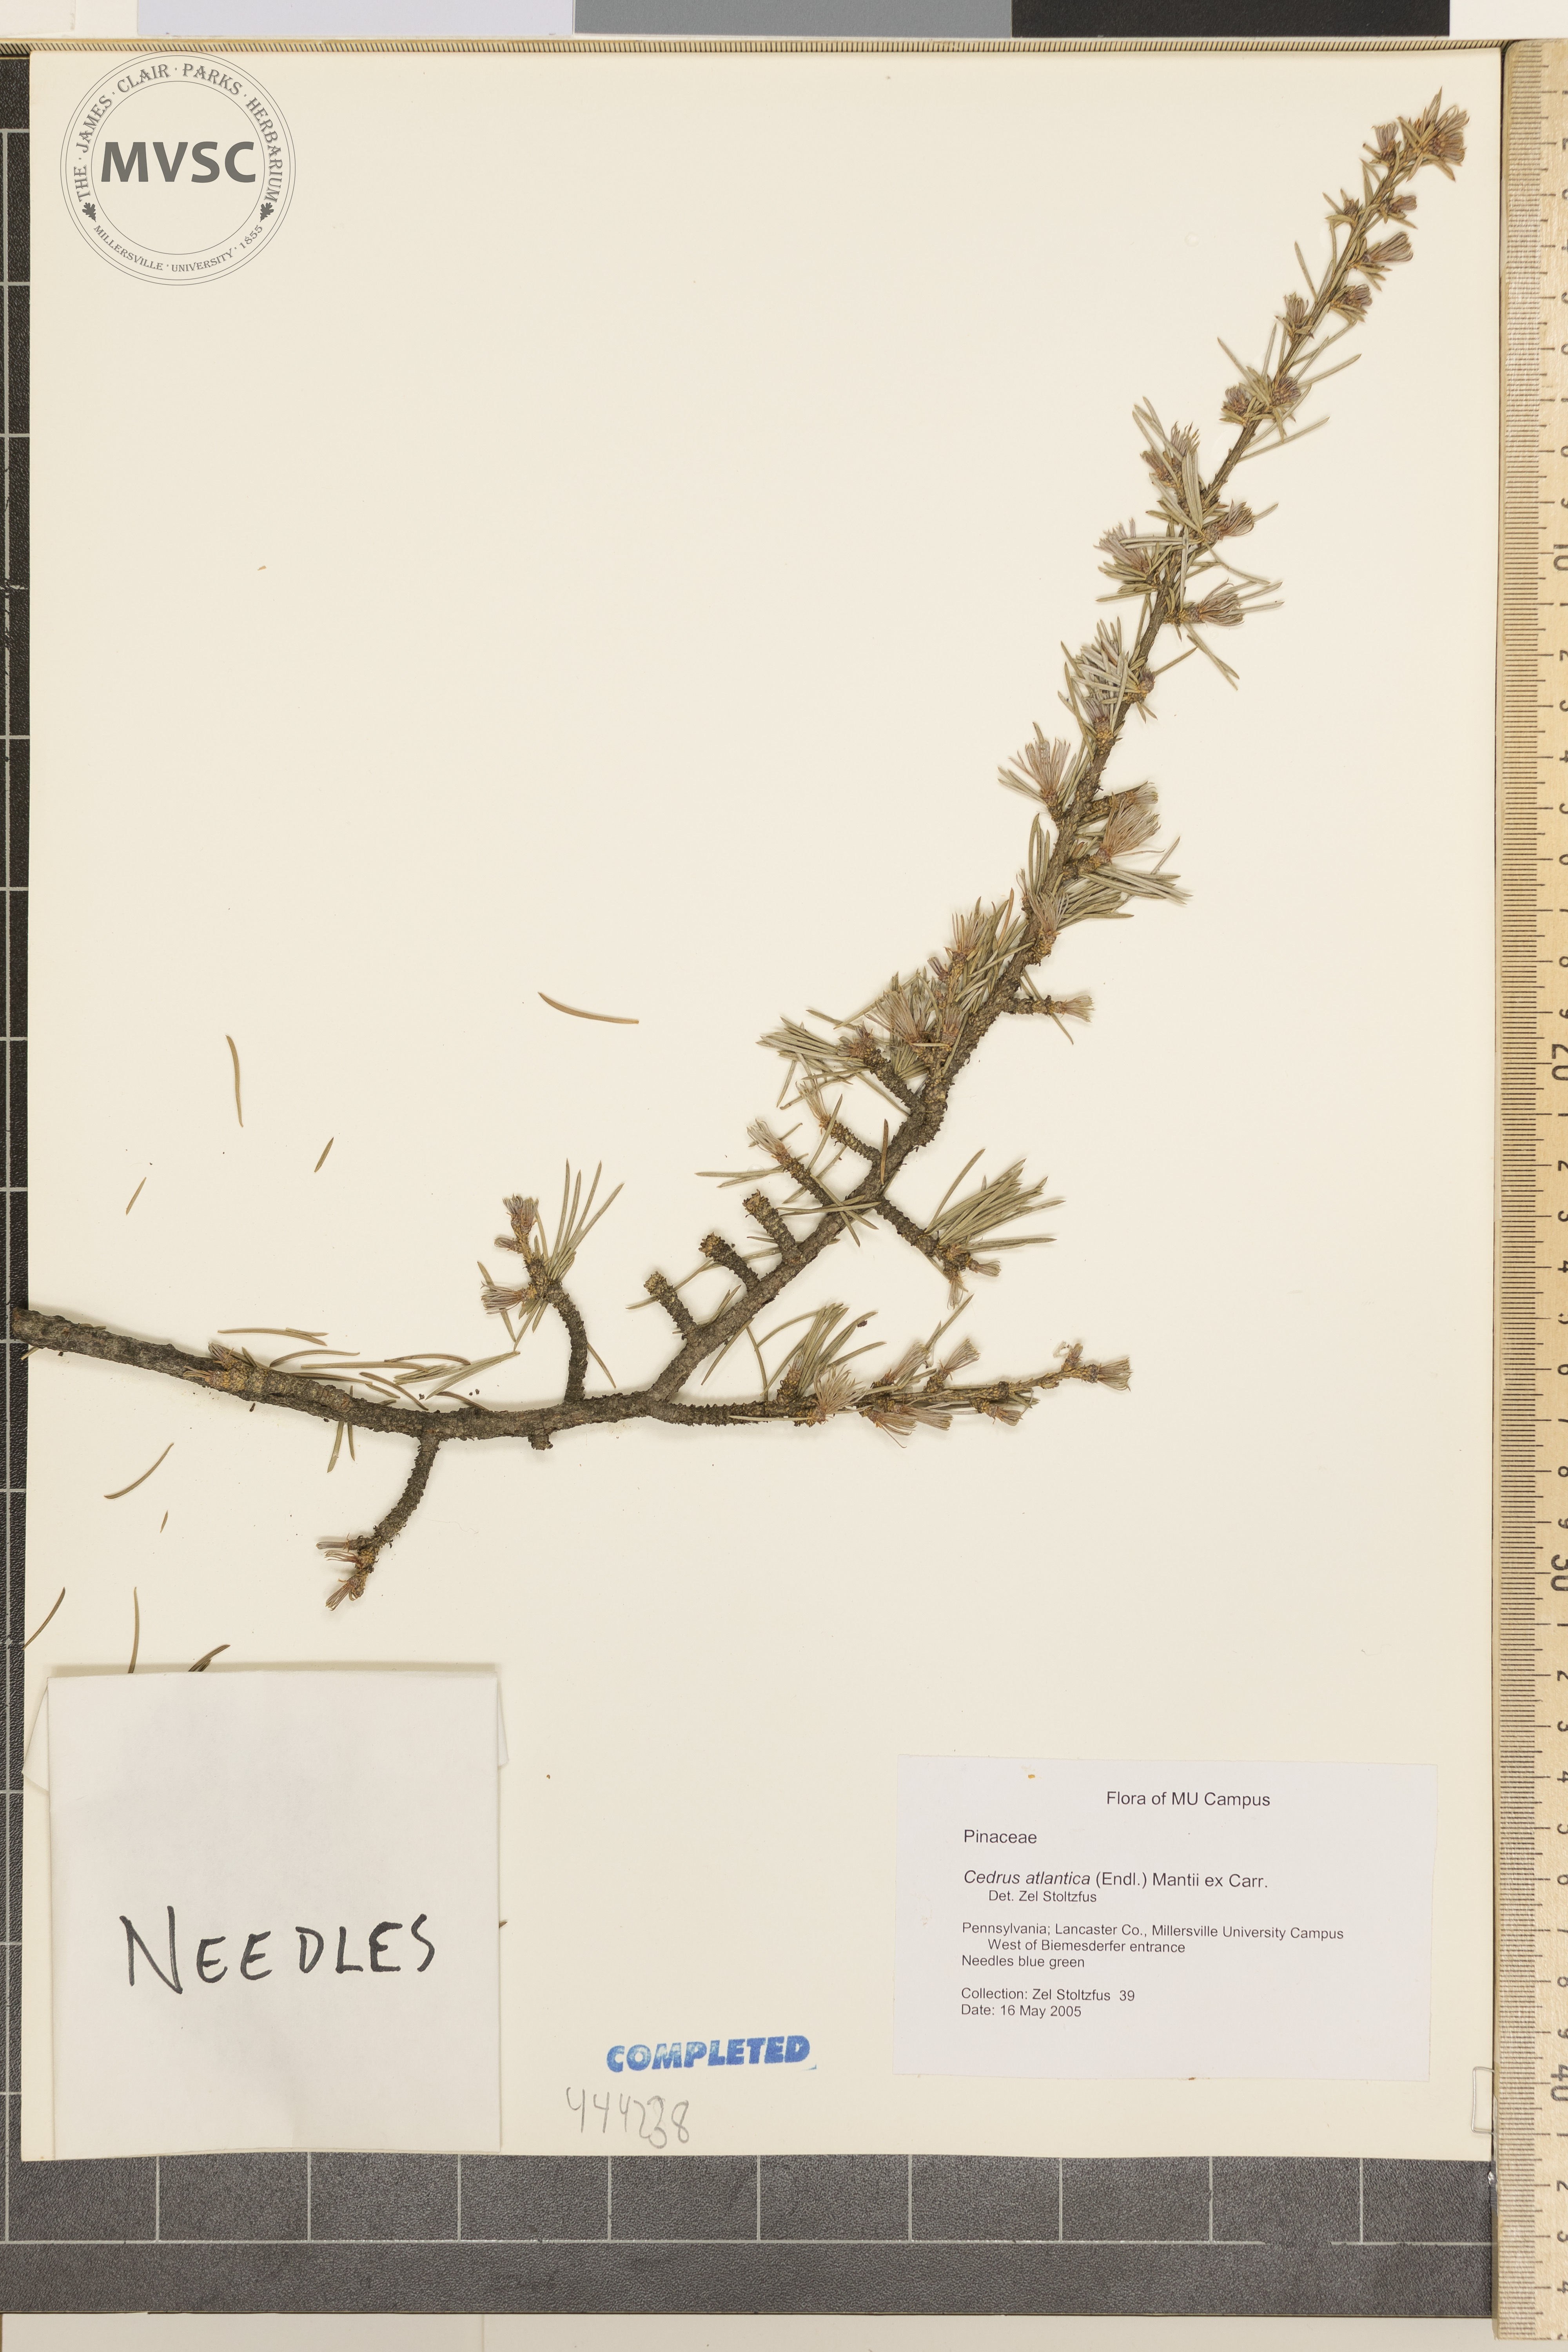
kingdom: Plantae
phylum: Tracheophyta
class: Pinopsida
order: Pinales
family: Pinaceae
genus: Cedrus
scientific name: Cedrus atlantica
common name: Atlas cedar
